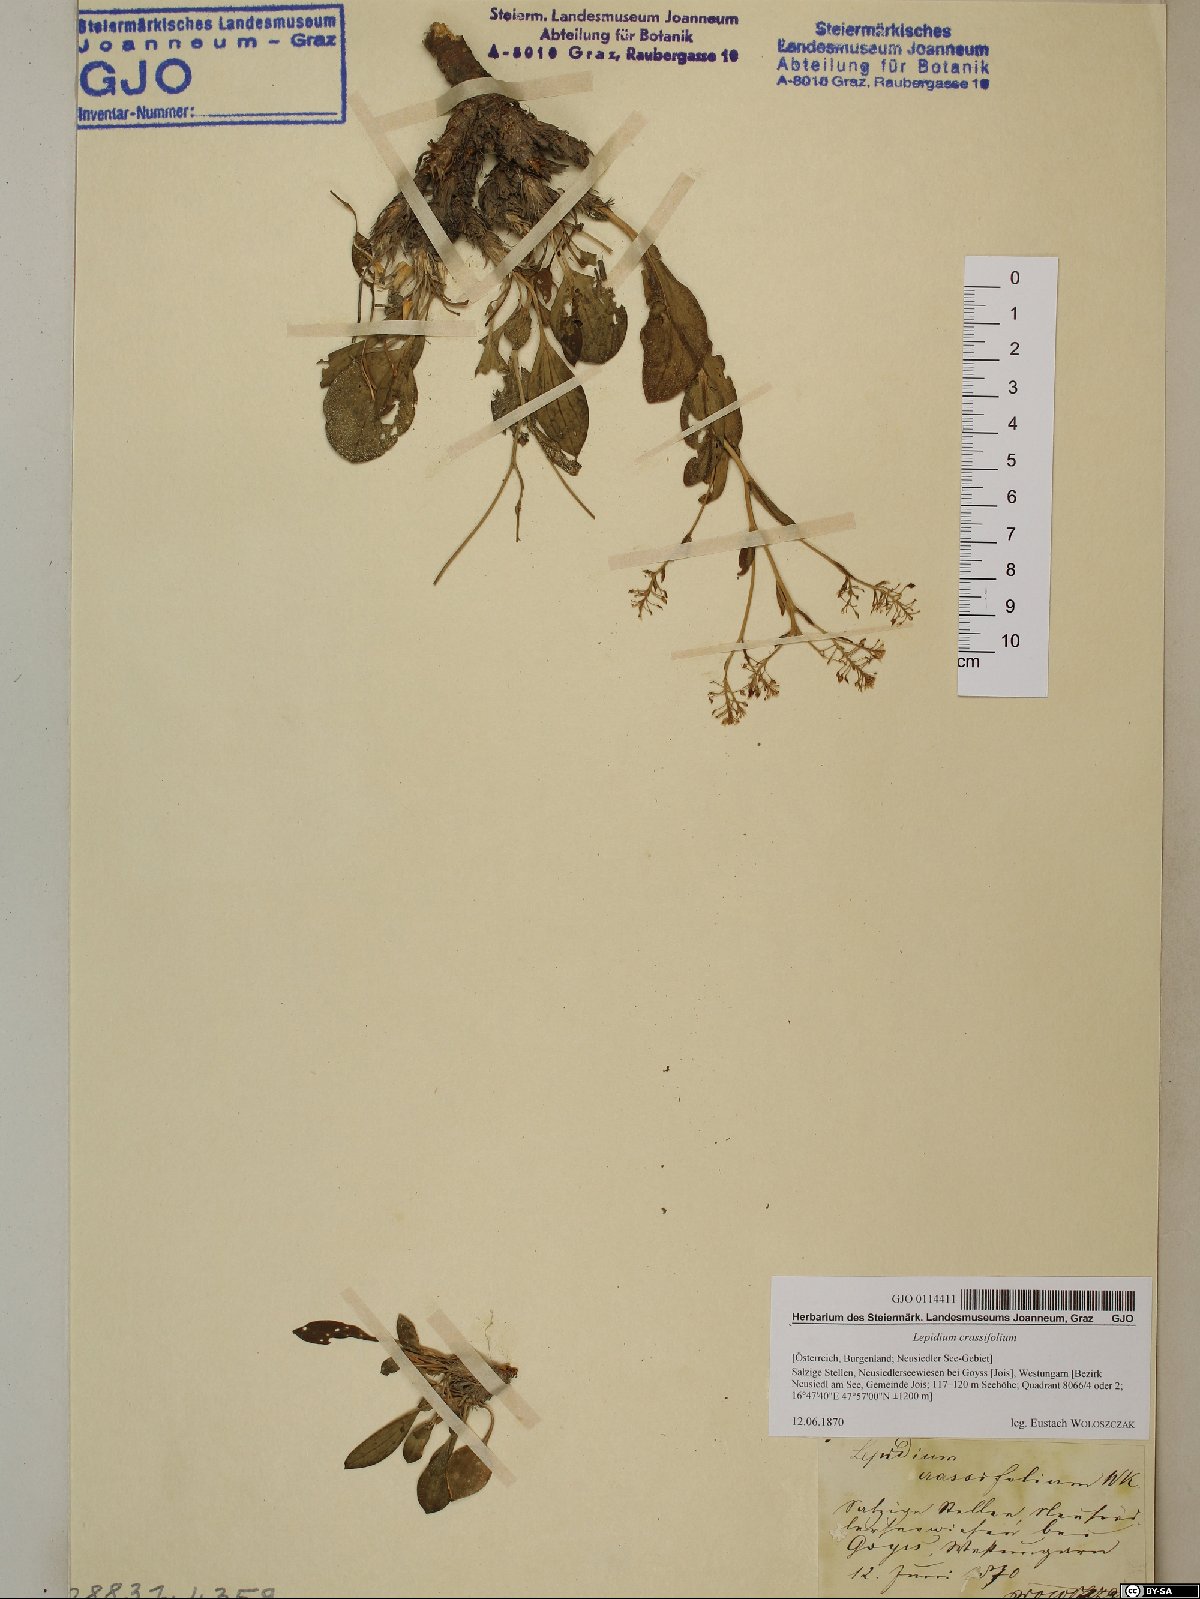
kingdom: Plantae
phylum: Tracheophyta
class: Magnoliopsida
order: Brassicales
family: Brassicaceae
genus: Lepidium
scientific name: Lepidium cartilagineum
